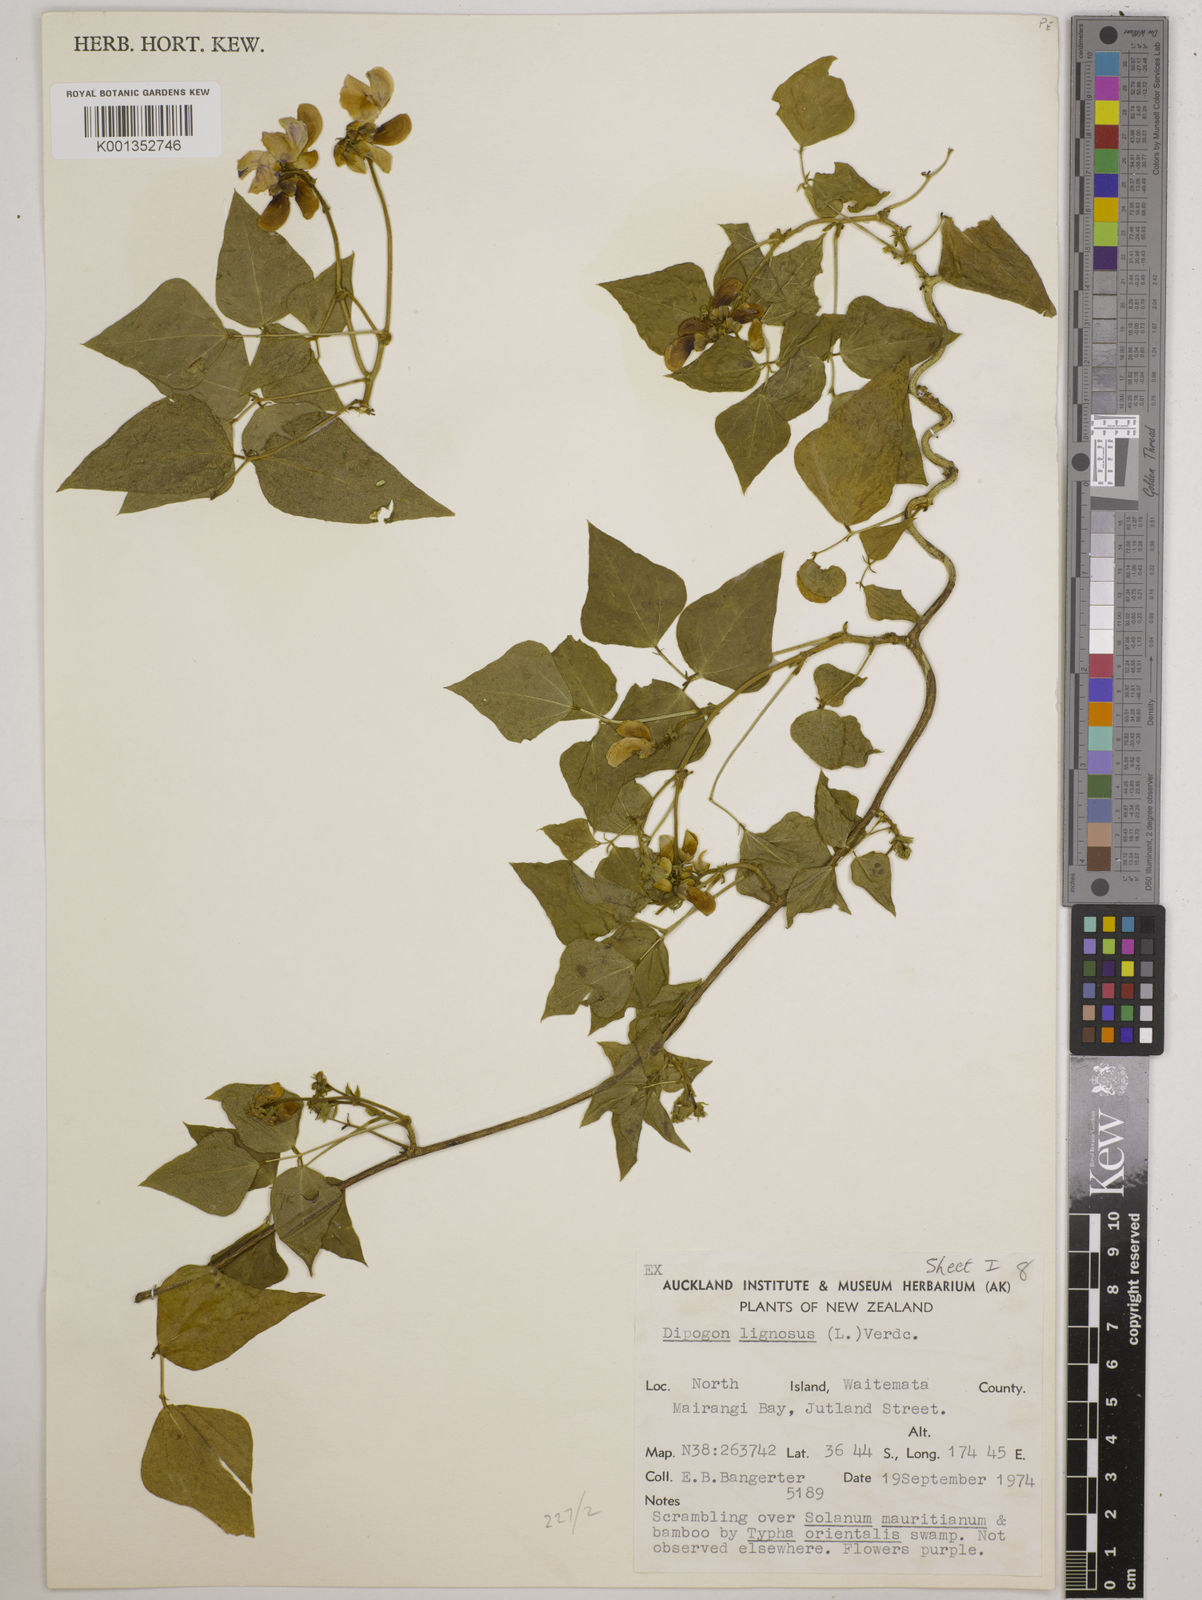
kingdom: Plantae
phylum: Tracheophyta
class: Magnoliopsida
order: Fabales
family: Fabaceae
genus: Dipogon
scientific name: Dipogon lignosus
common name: Okie bean
